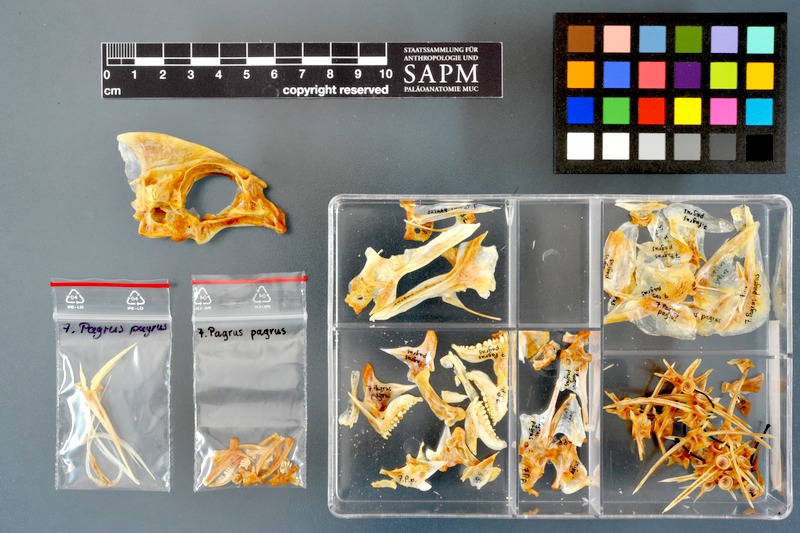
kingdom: Animalia
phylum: Chordata
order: Perciformes
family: Sparidae
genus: Pagrus
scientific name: Pagrus pagrus
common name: Red porgy
